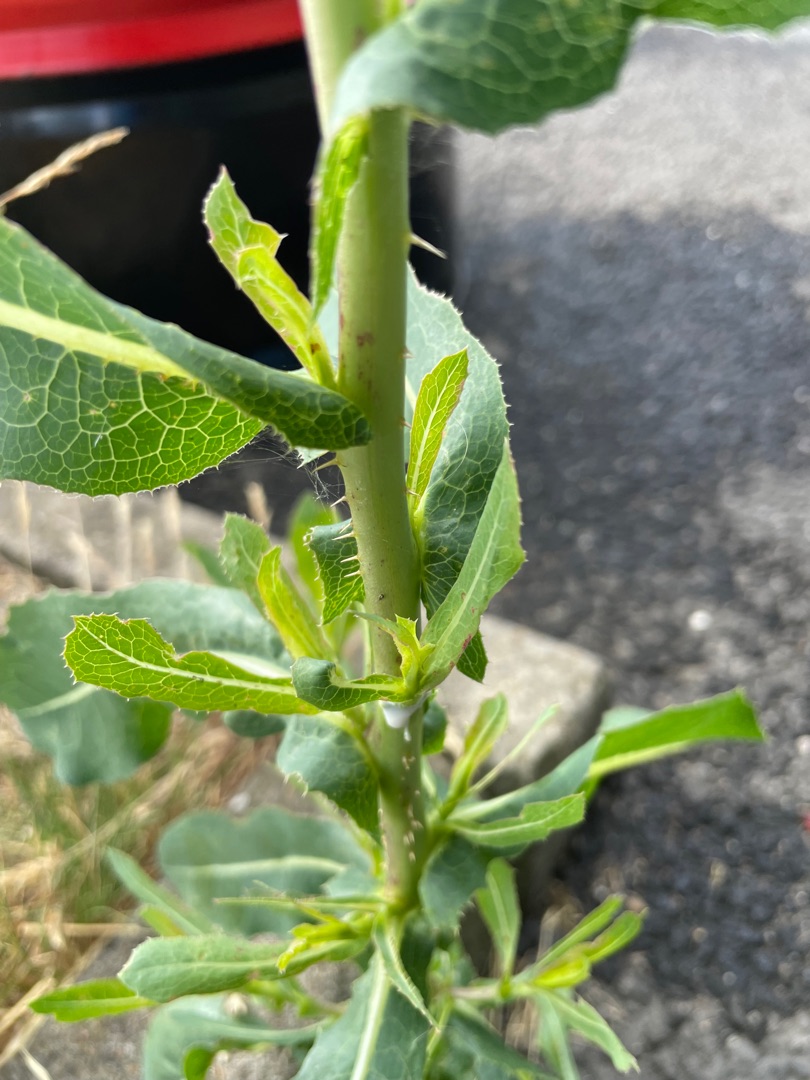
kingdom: Plantae
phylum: Tracheophyta
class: Magnoliopsida
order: Asterales
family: Asteraceae
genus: Lactuca
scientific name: Lactuca serriola
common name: Tornet salat
